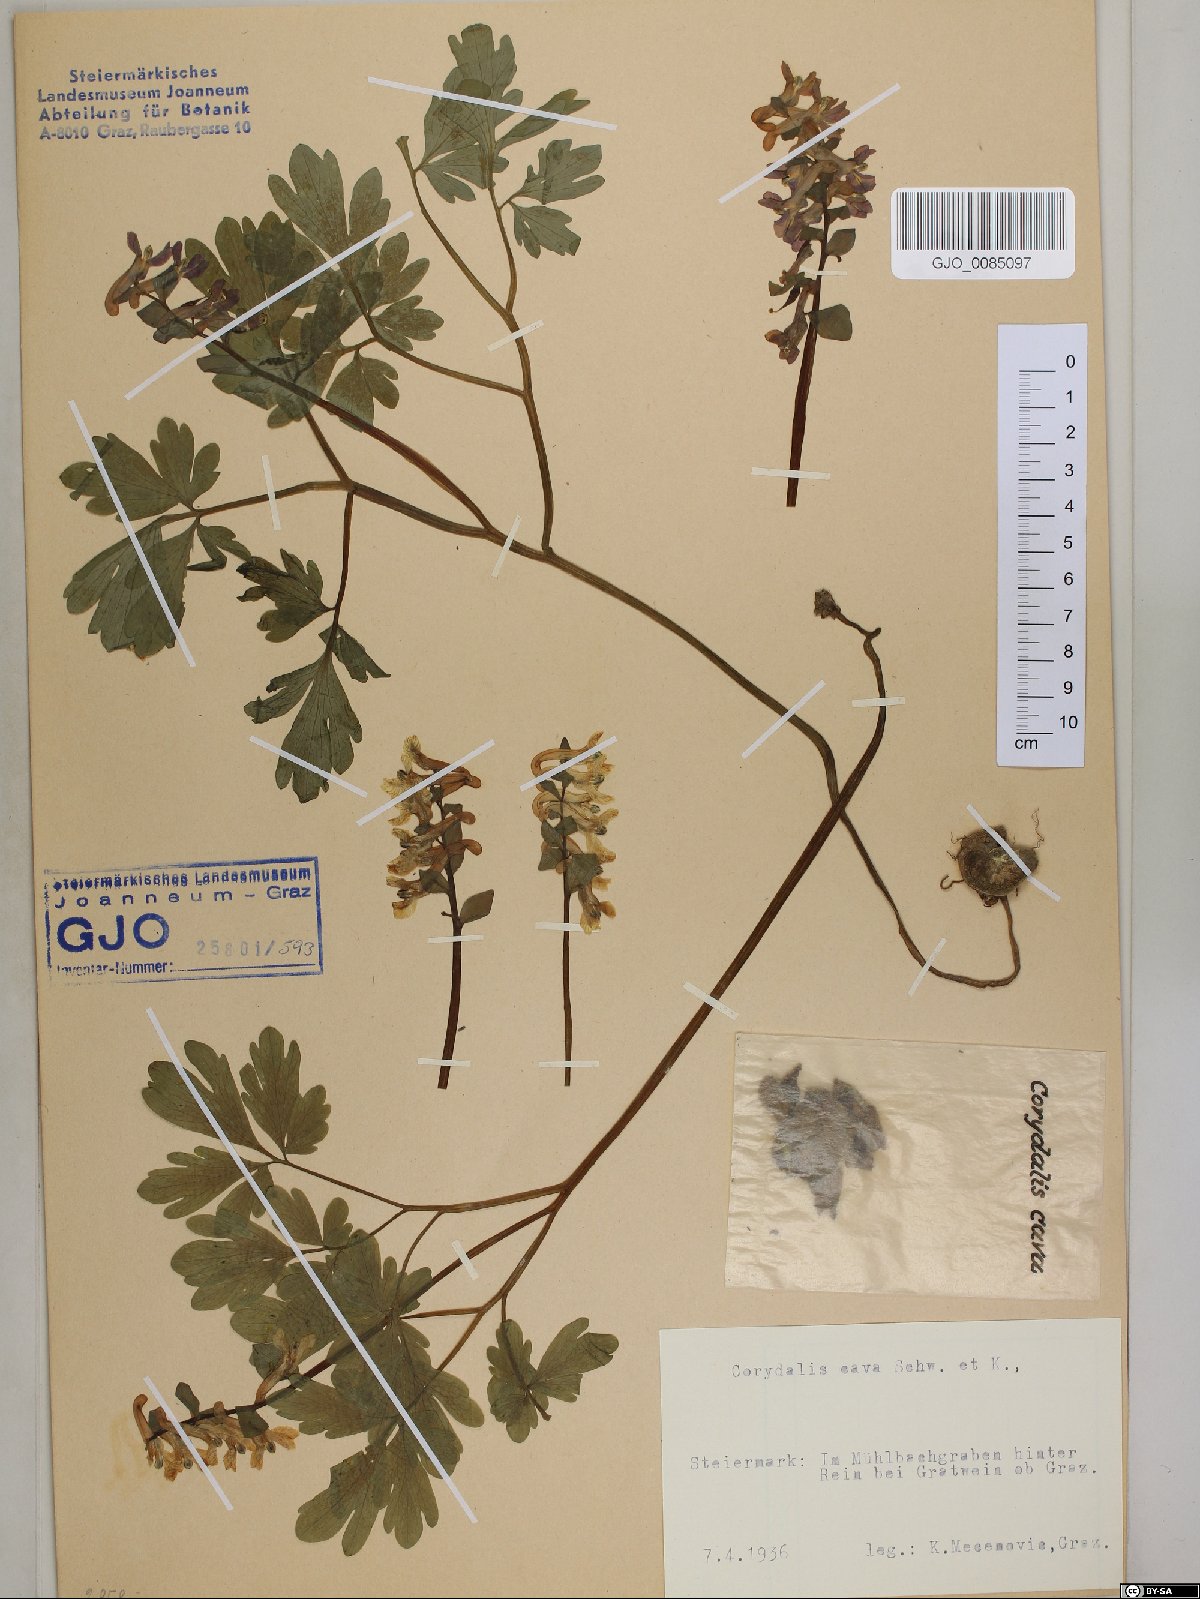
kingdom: Plantae
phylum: Tracheophyta
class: Magnoliopsida
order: Ranunculales
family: Papaveraceae
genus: Corydalis
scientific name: Corydalis cava
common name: Hollowroot
